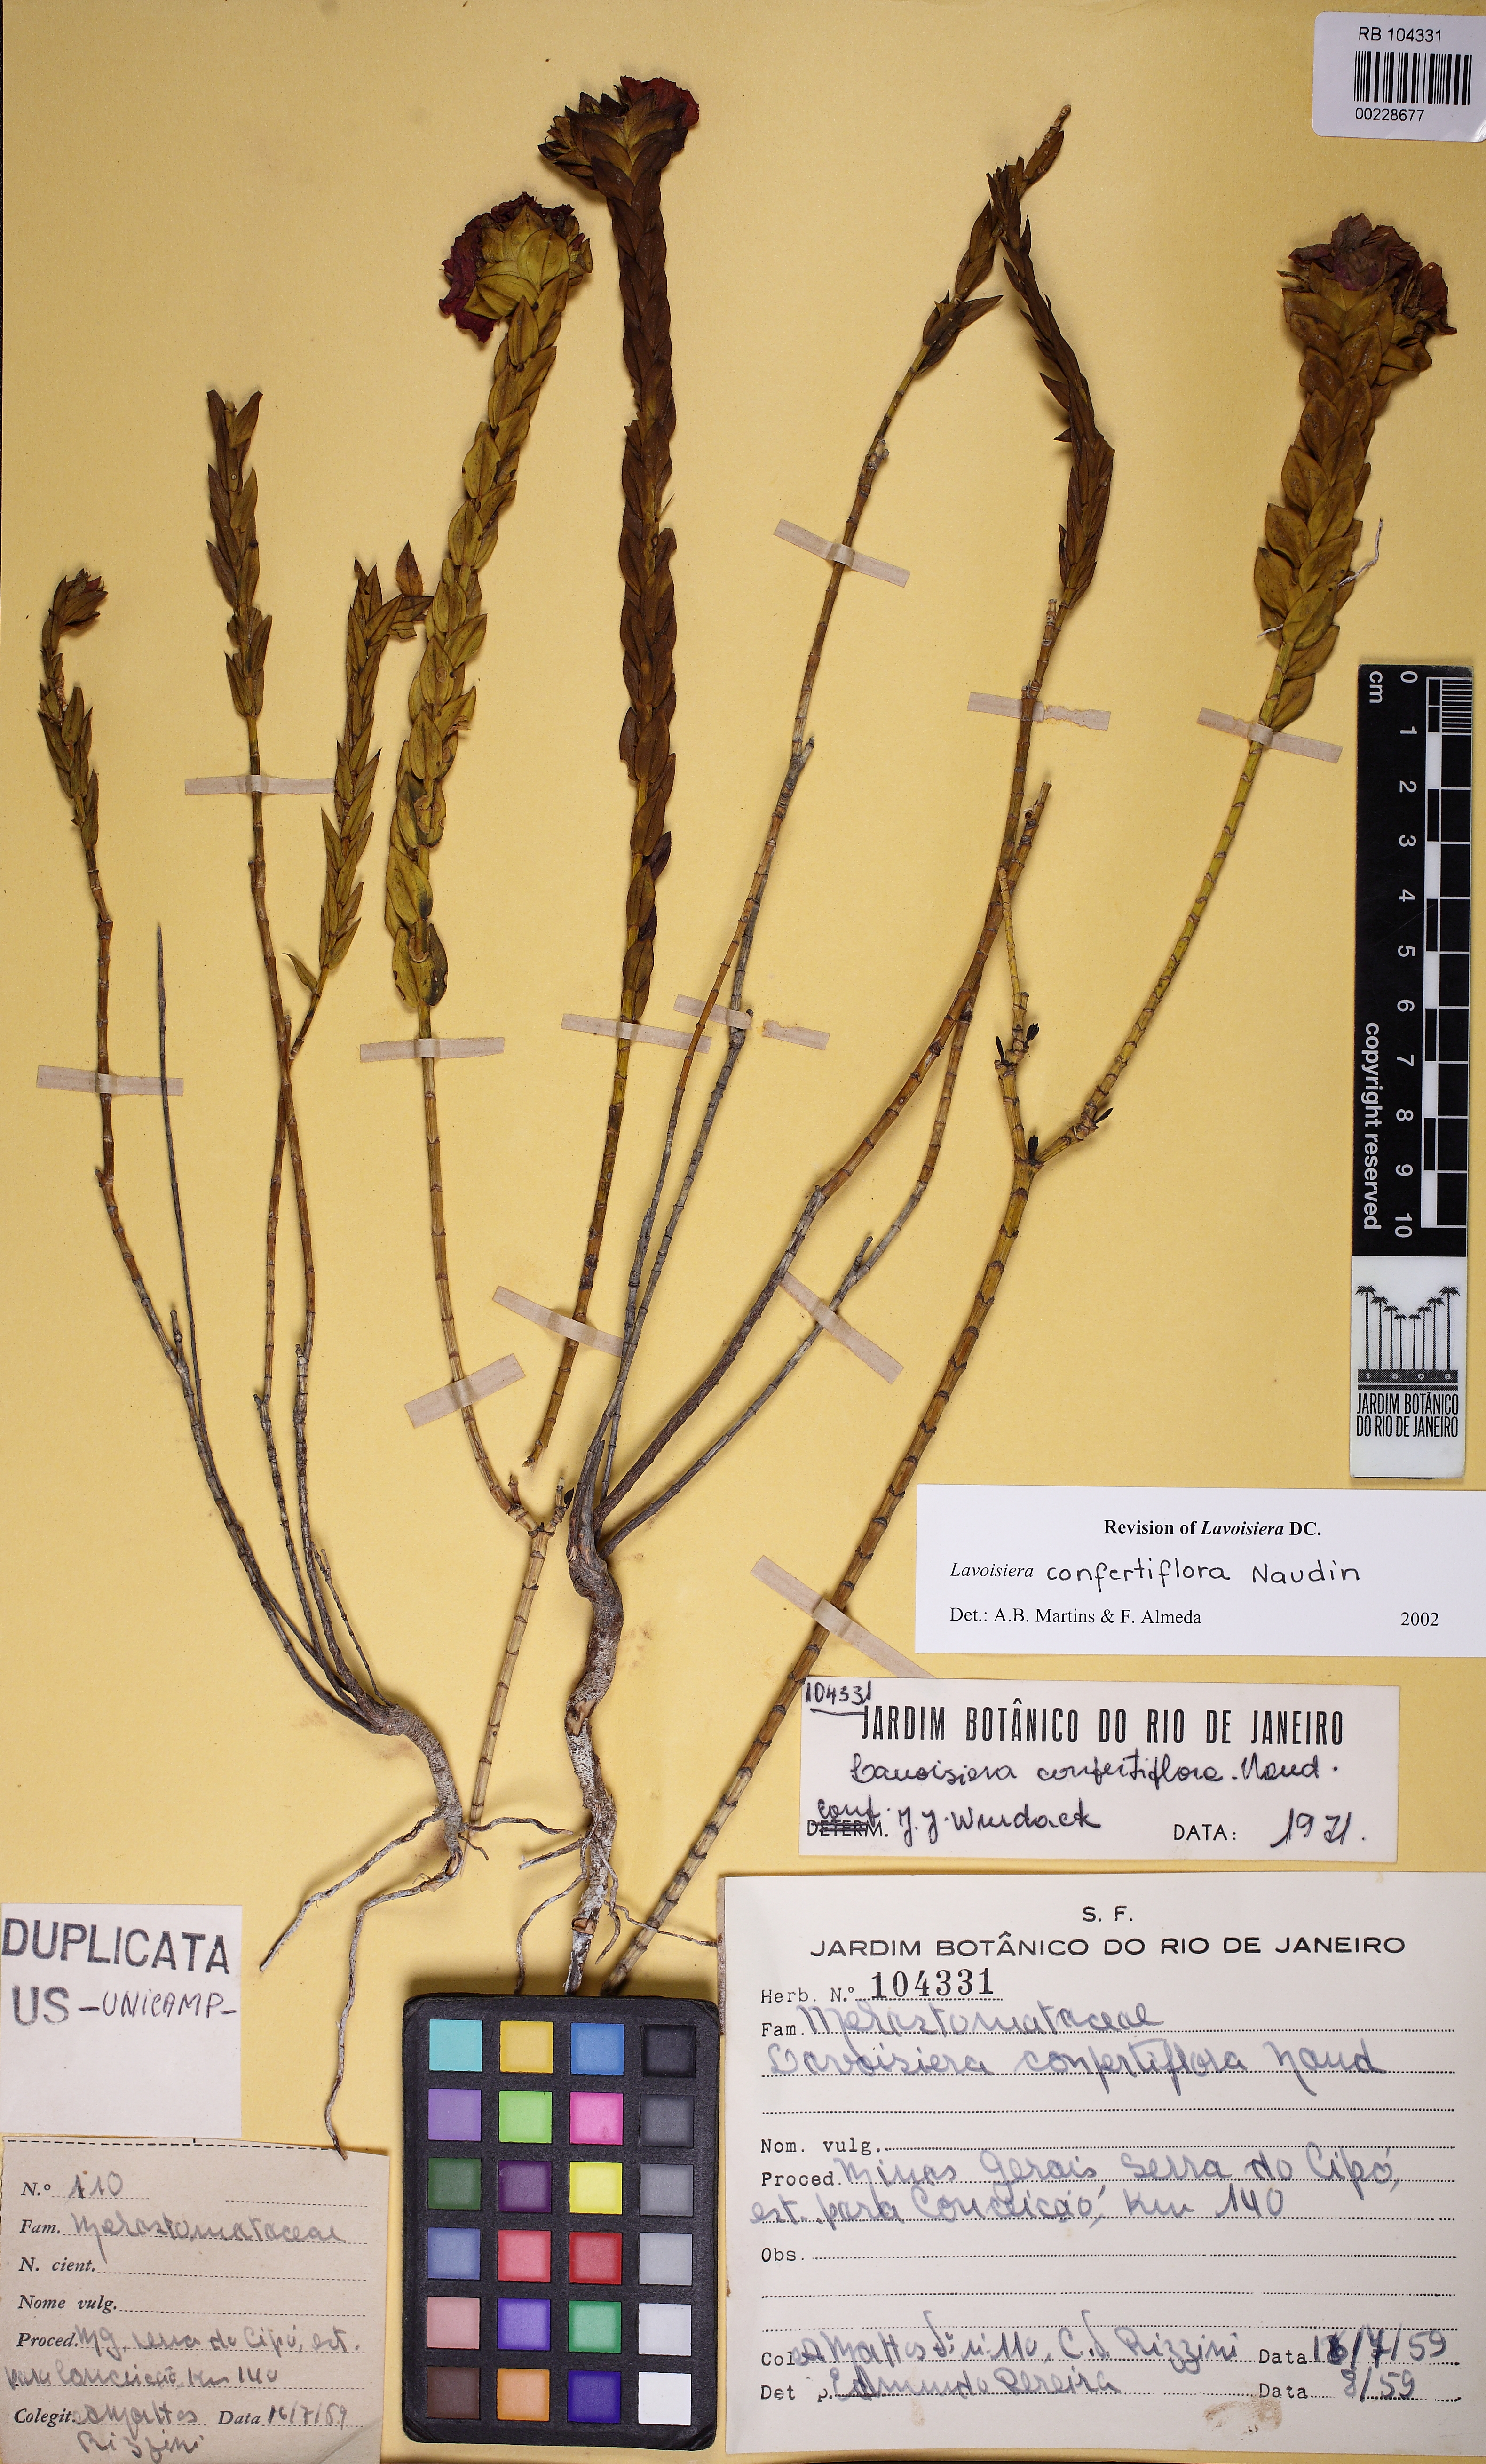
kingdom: Plantae
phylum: Tracheophyta
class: Magnoliopsida
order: Myrtales
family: Melastomataceae
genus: Microlicia
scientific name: Microlicia congestiflora
